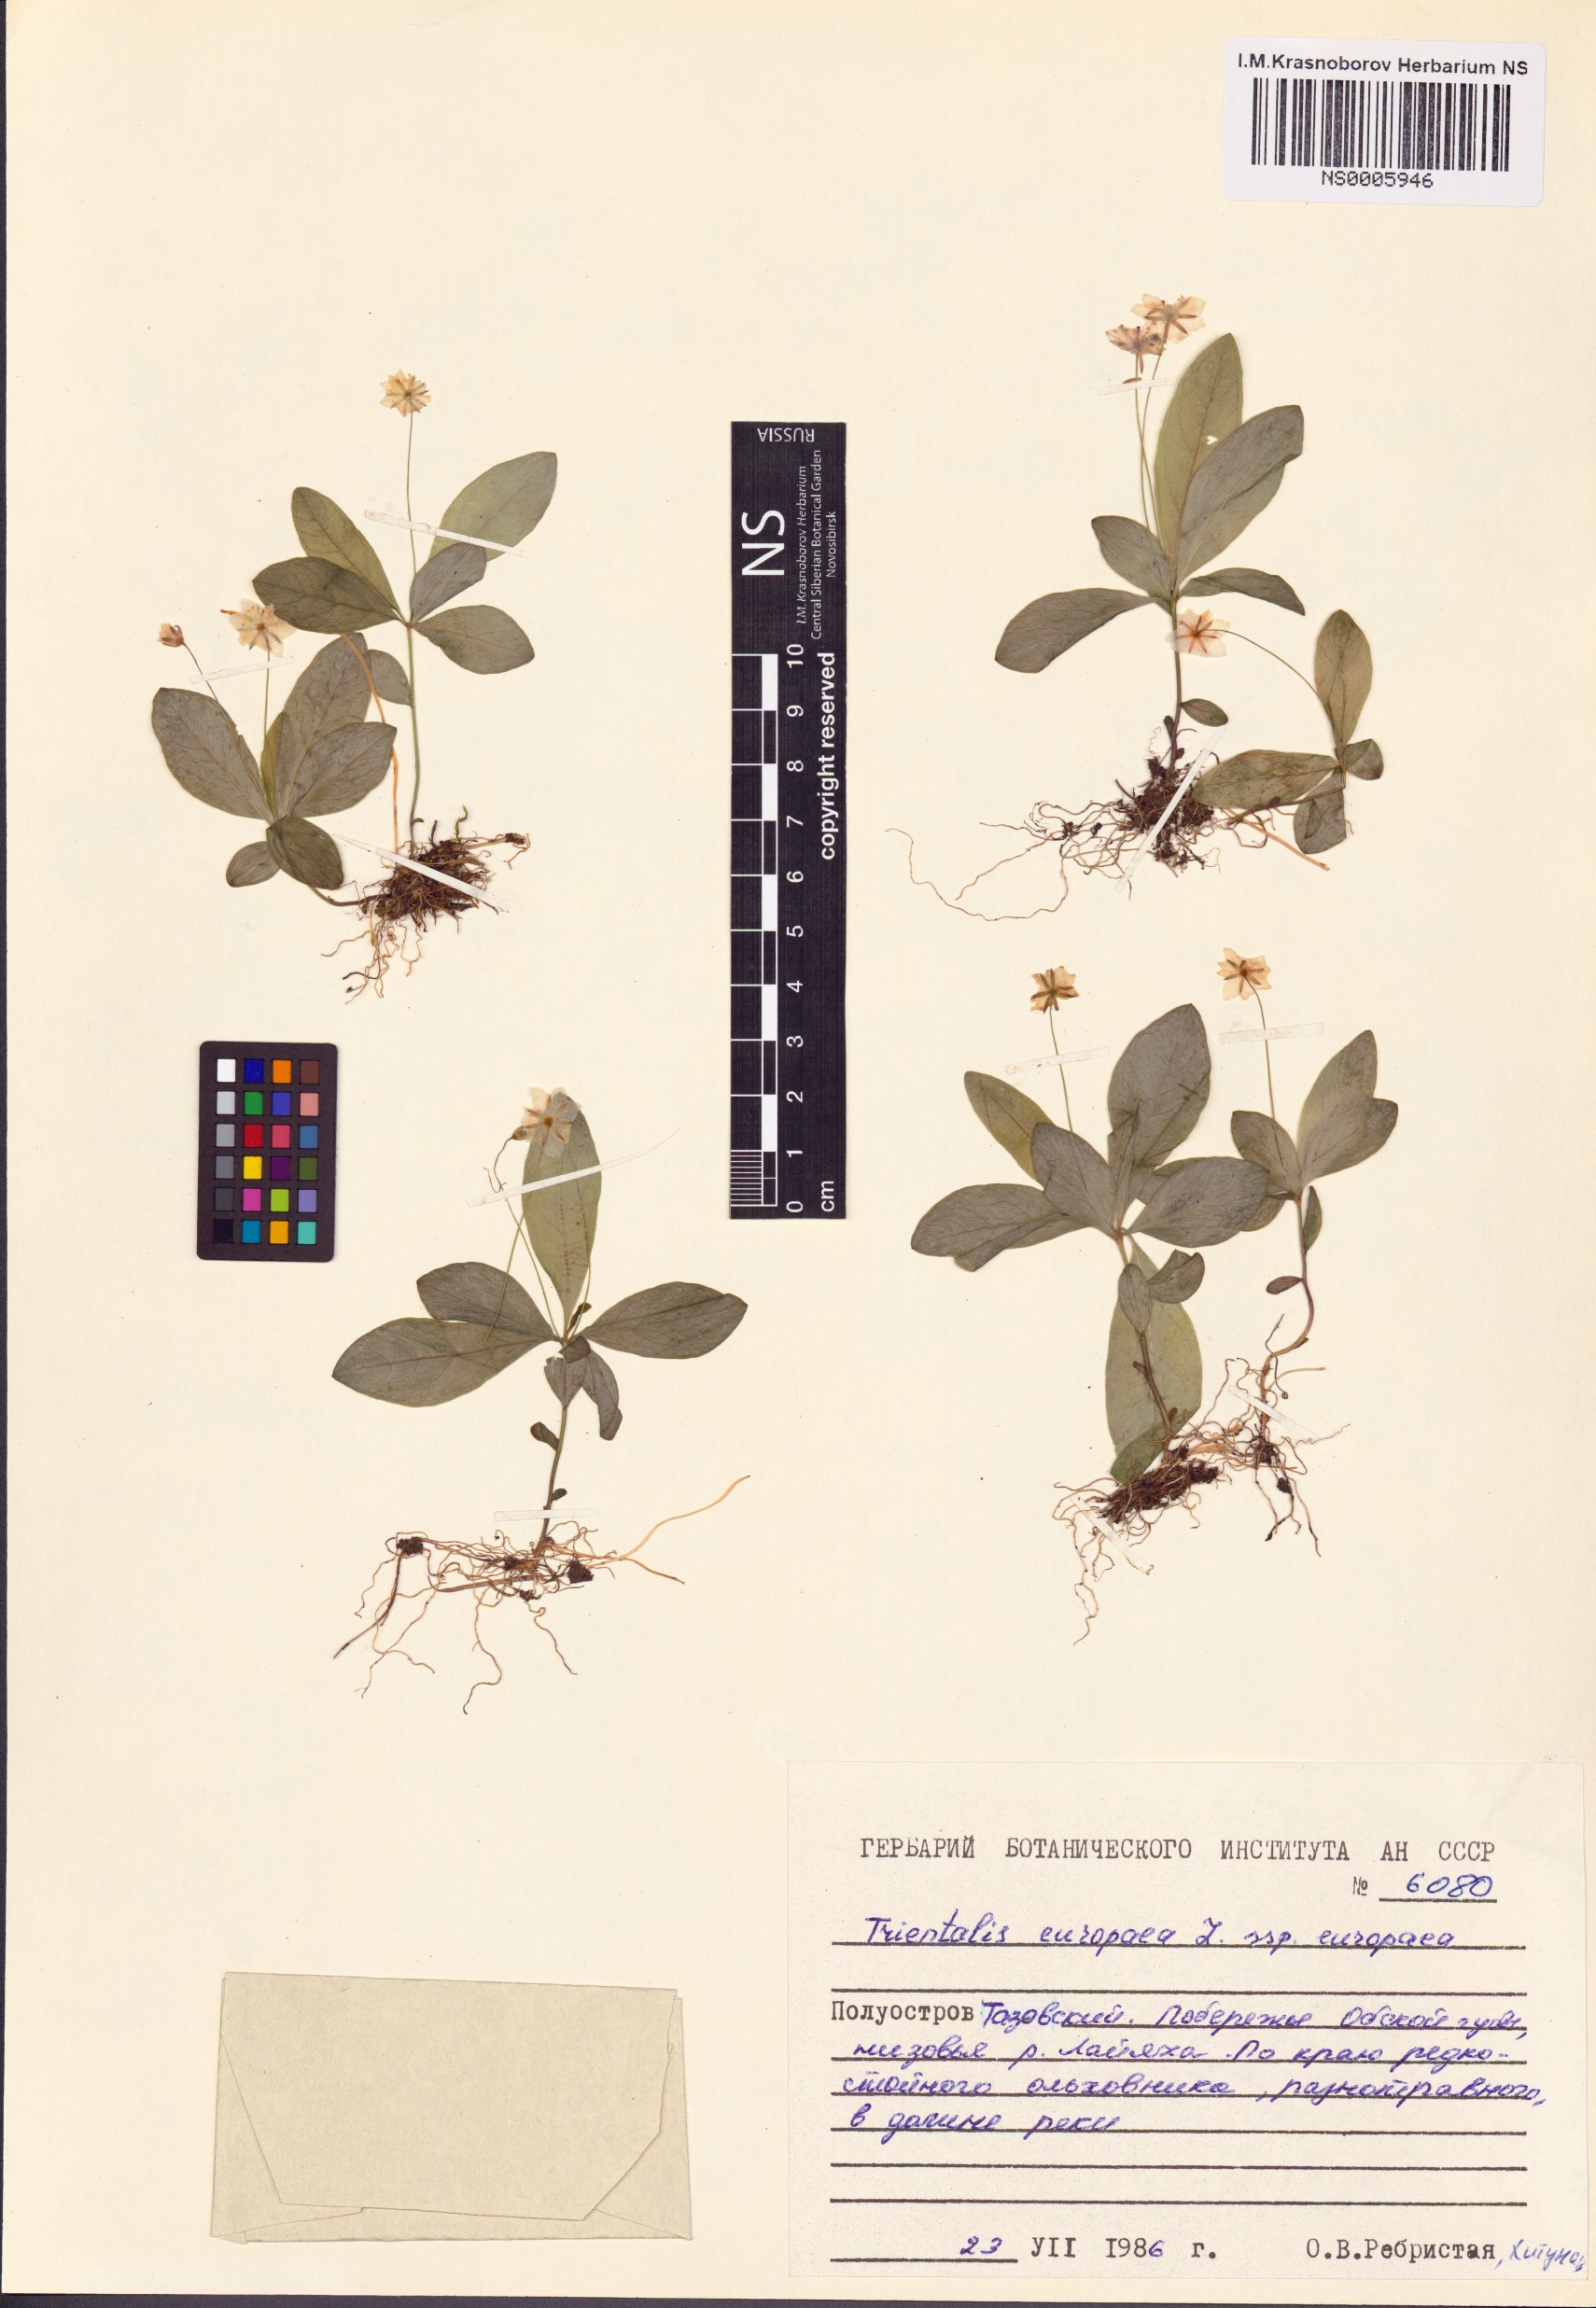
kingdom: Plantae
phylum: Tracheophyta
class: Magnoliopsida
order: Ericales
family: Primulaceae
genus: Lysimachia
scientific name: Lysimachia europaea
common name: Arctic starflower
